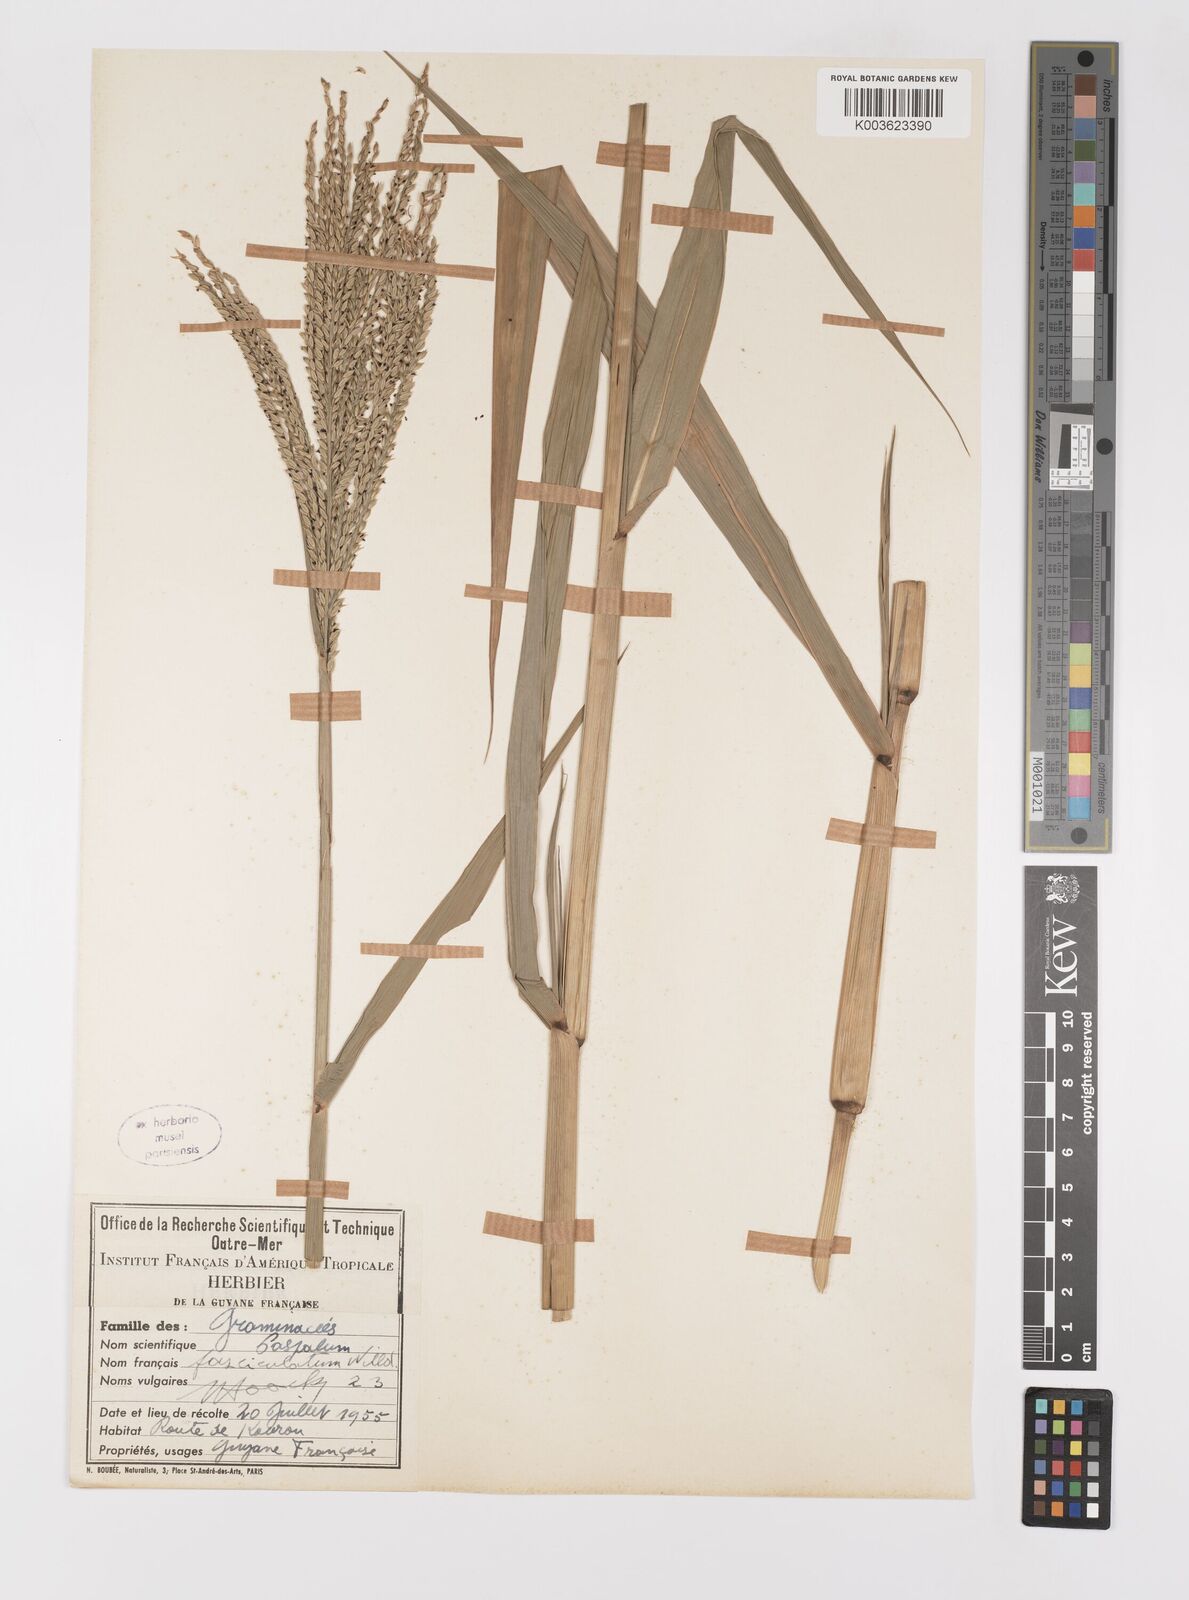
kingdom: Plantae
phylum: Tracheophyta
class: Liliopsida
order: Poales
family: Poaceae
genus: Paspalum
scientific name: Paspalum fasciculatum
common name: Bamboo grass
